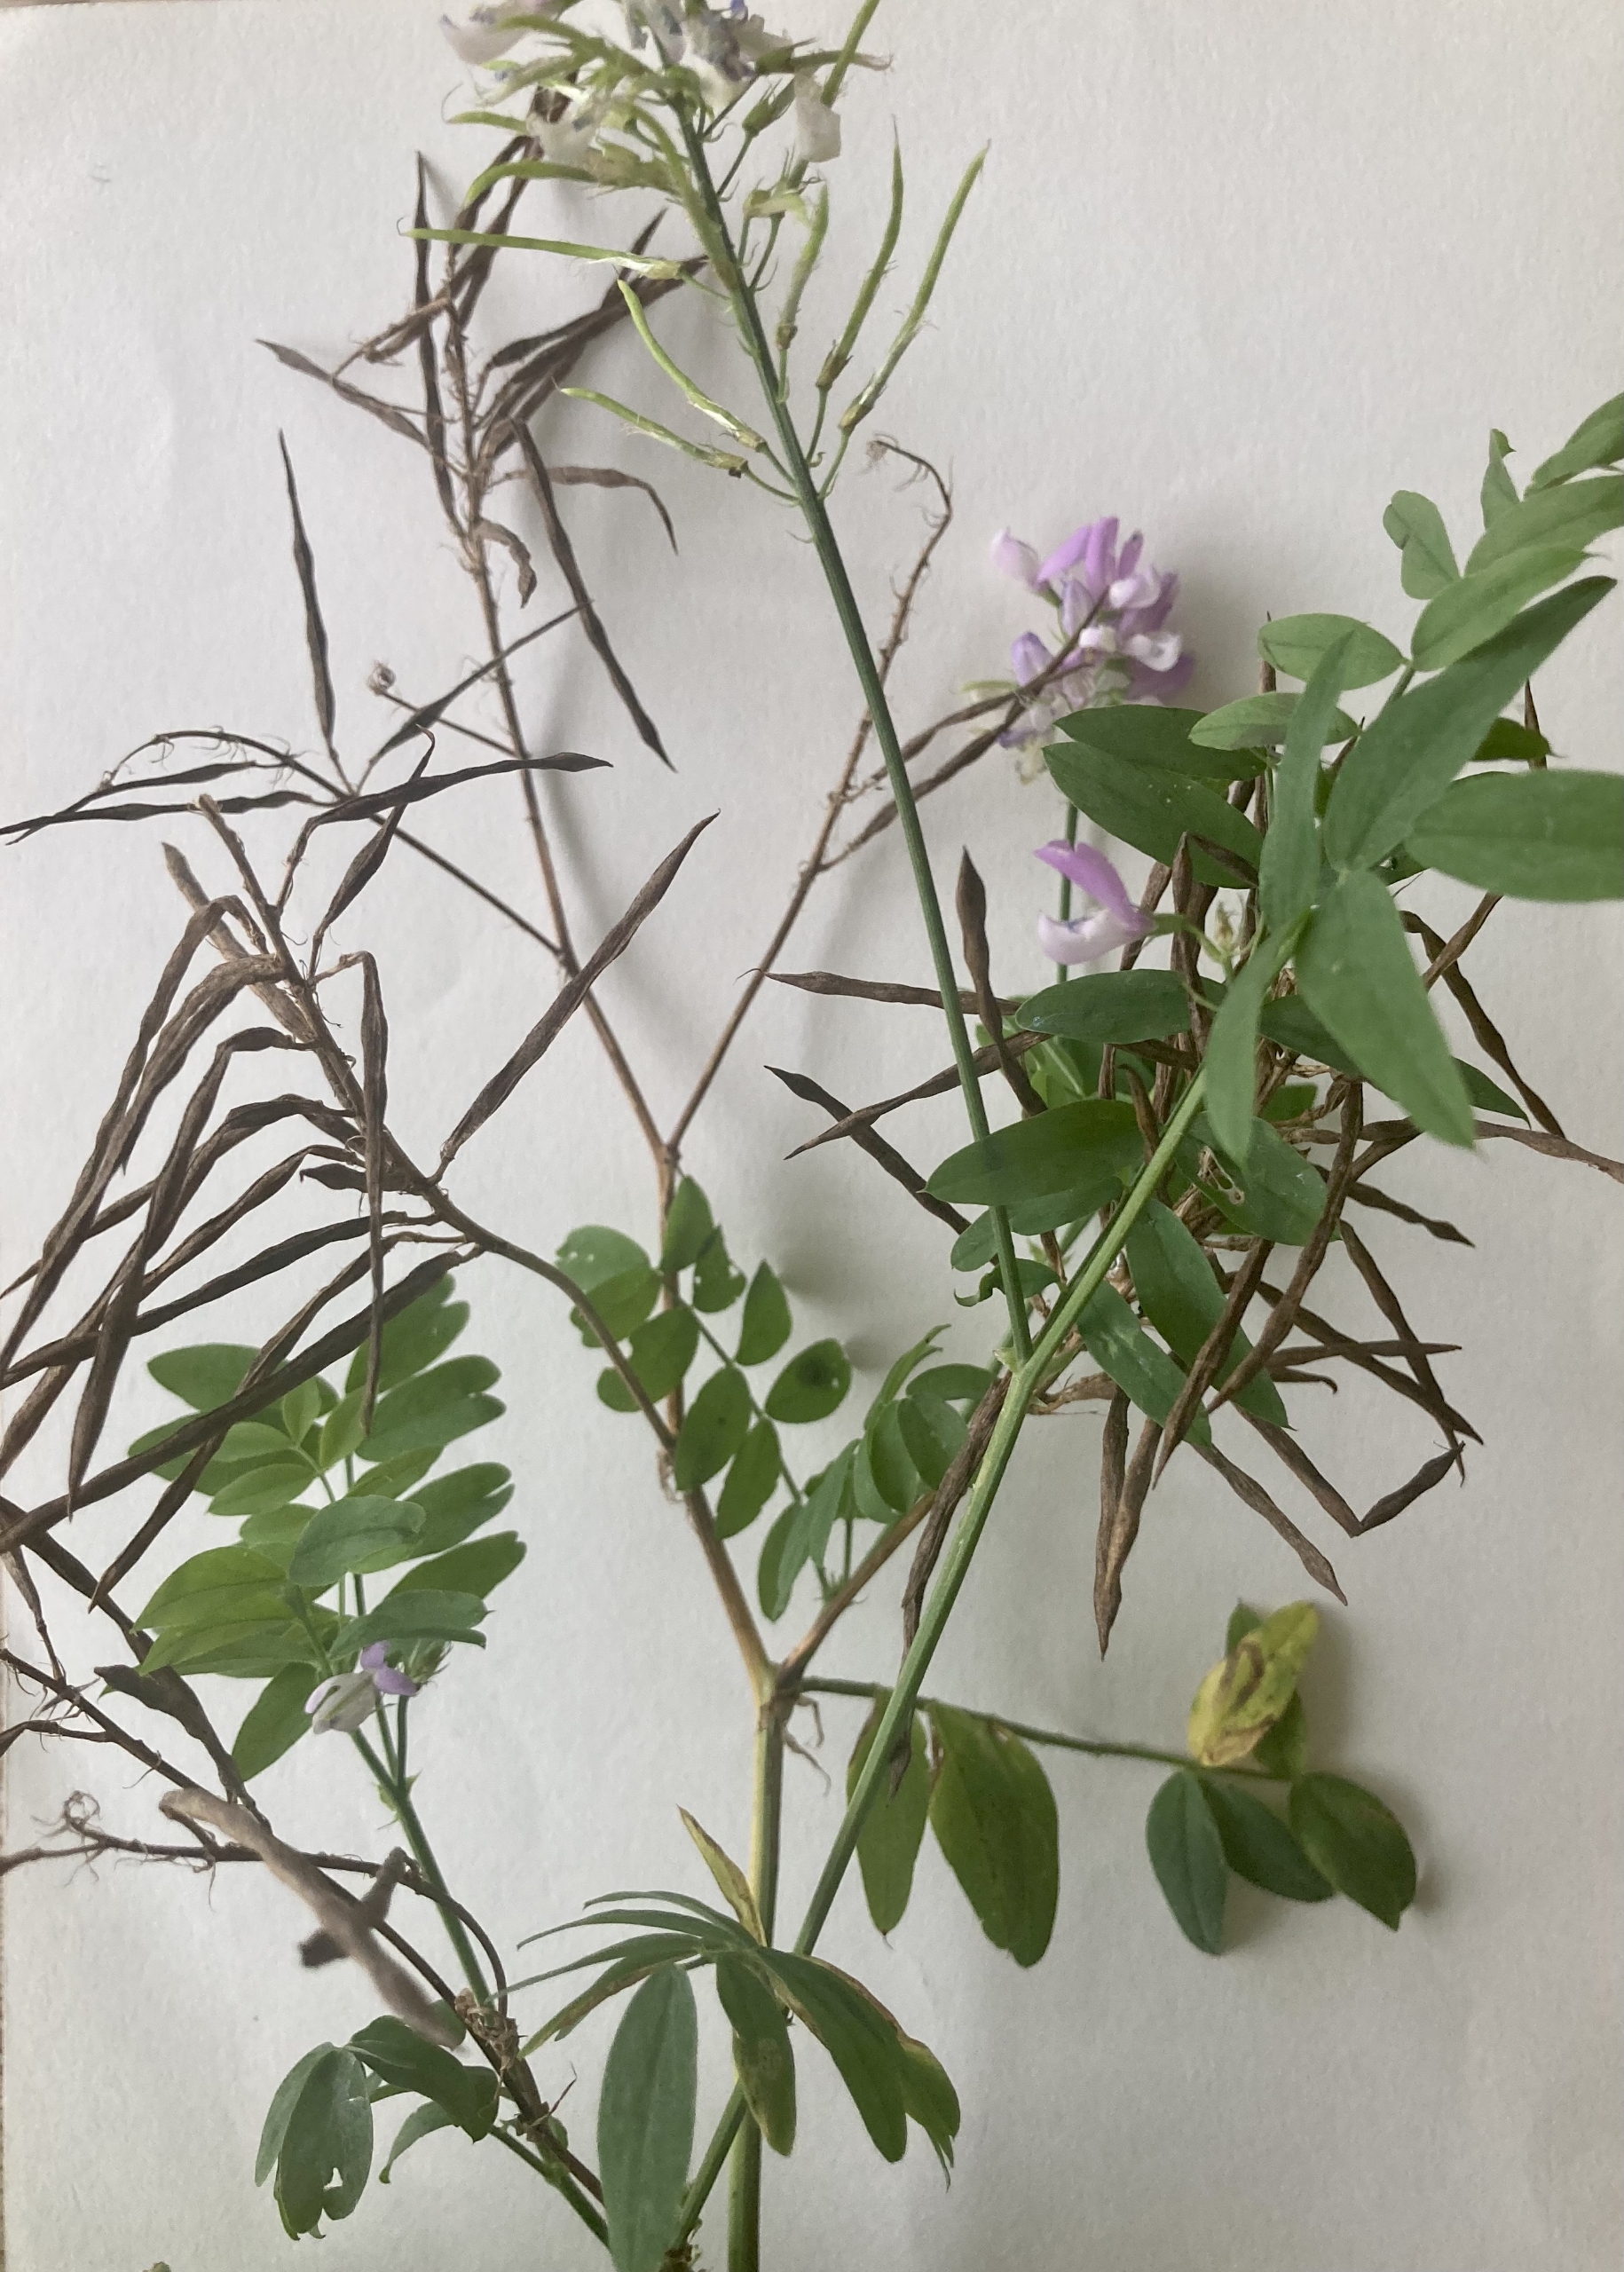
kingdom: Plantae
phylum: Tracheophyta
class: Magnoliopsida
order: Fabales
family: Fabaceae
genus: Galega
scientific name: Galega officinalis
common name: Læge-stregbælg
